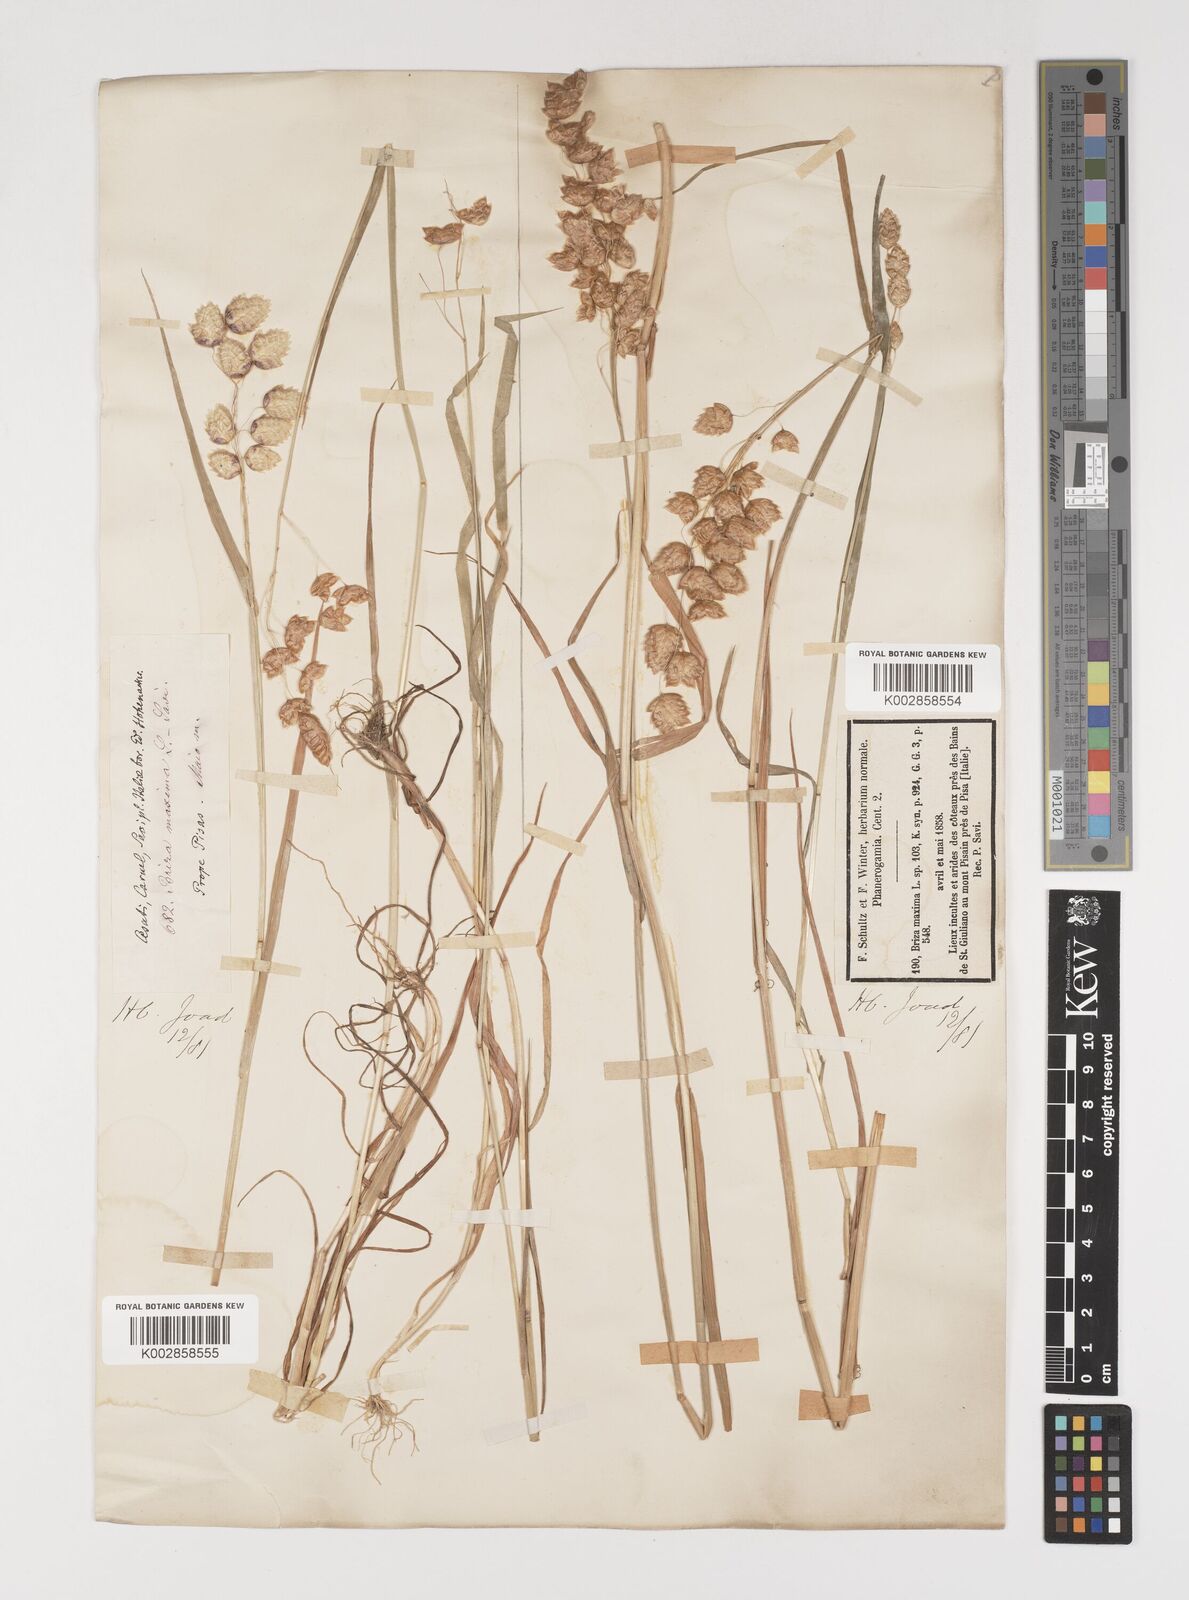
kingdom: Plantae
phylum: Tracheophyta
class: Liliopsida
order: Poales
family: Poaceae
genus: Briza
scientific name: Briza maxima
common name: Big quakinggrass
